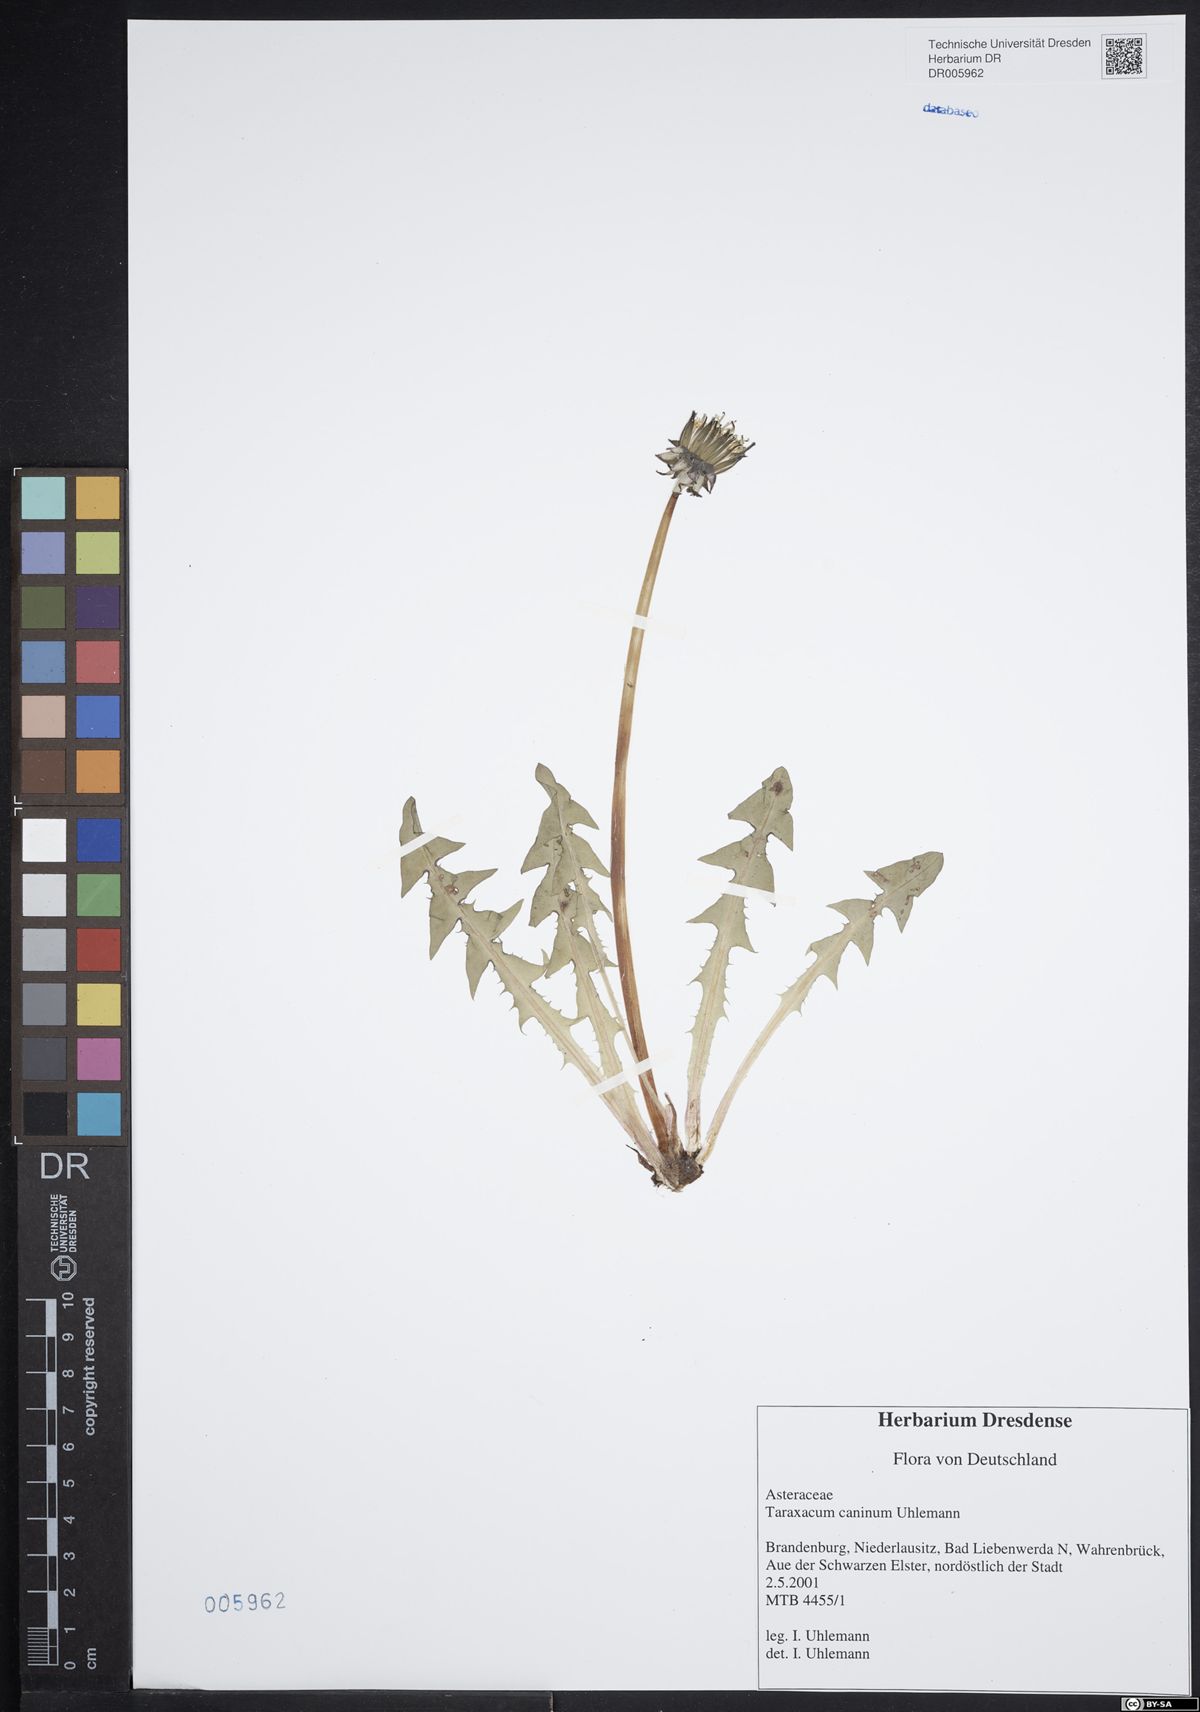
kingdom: Plantae
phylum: Tracheophyta
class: Magnoliopsida
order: Asterales
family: Asteraceae
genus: Taraxacum
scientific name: Taraxacum caninum
